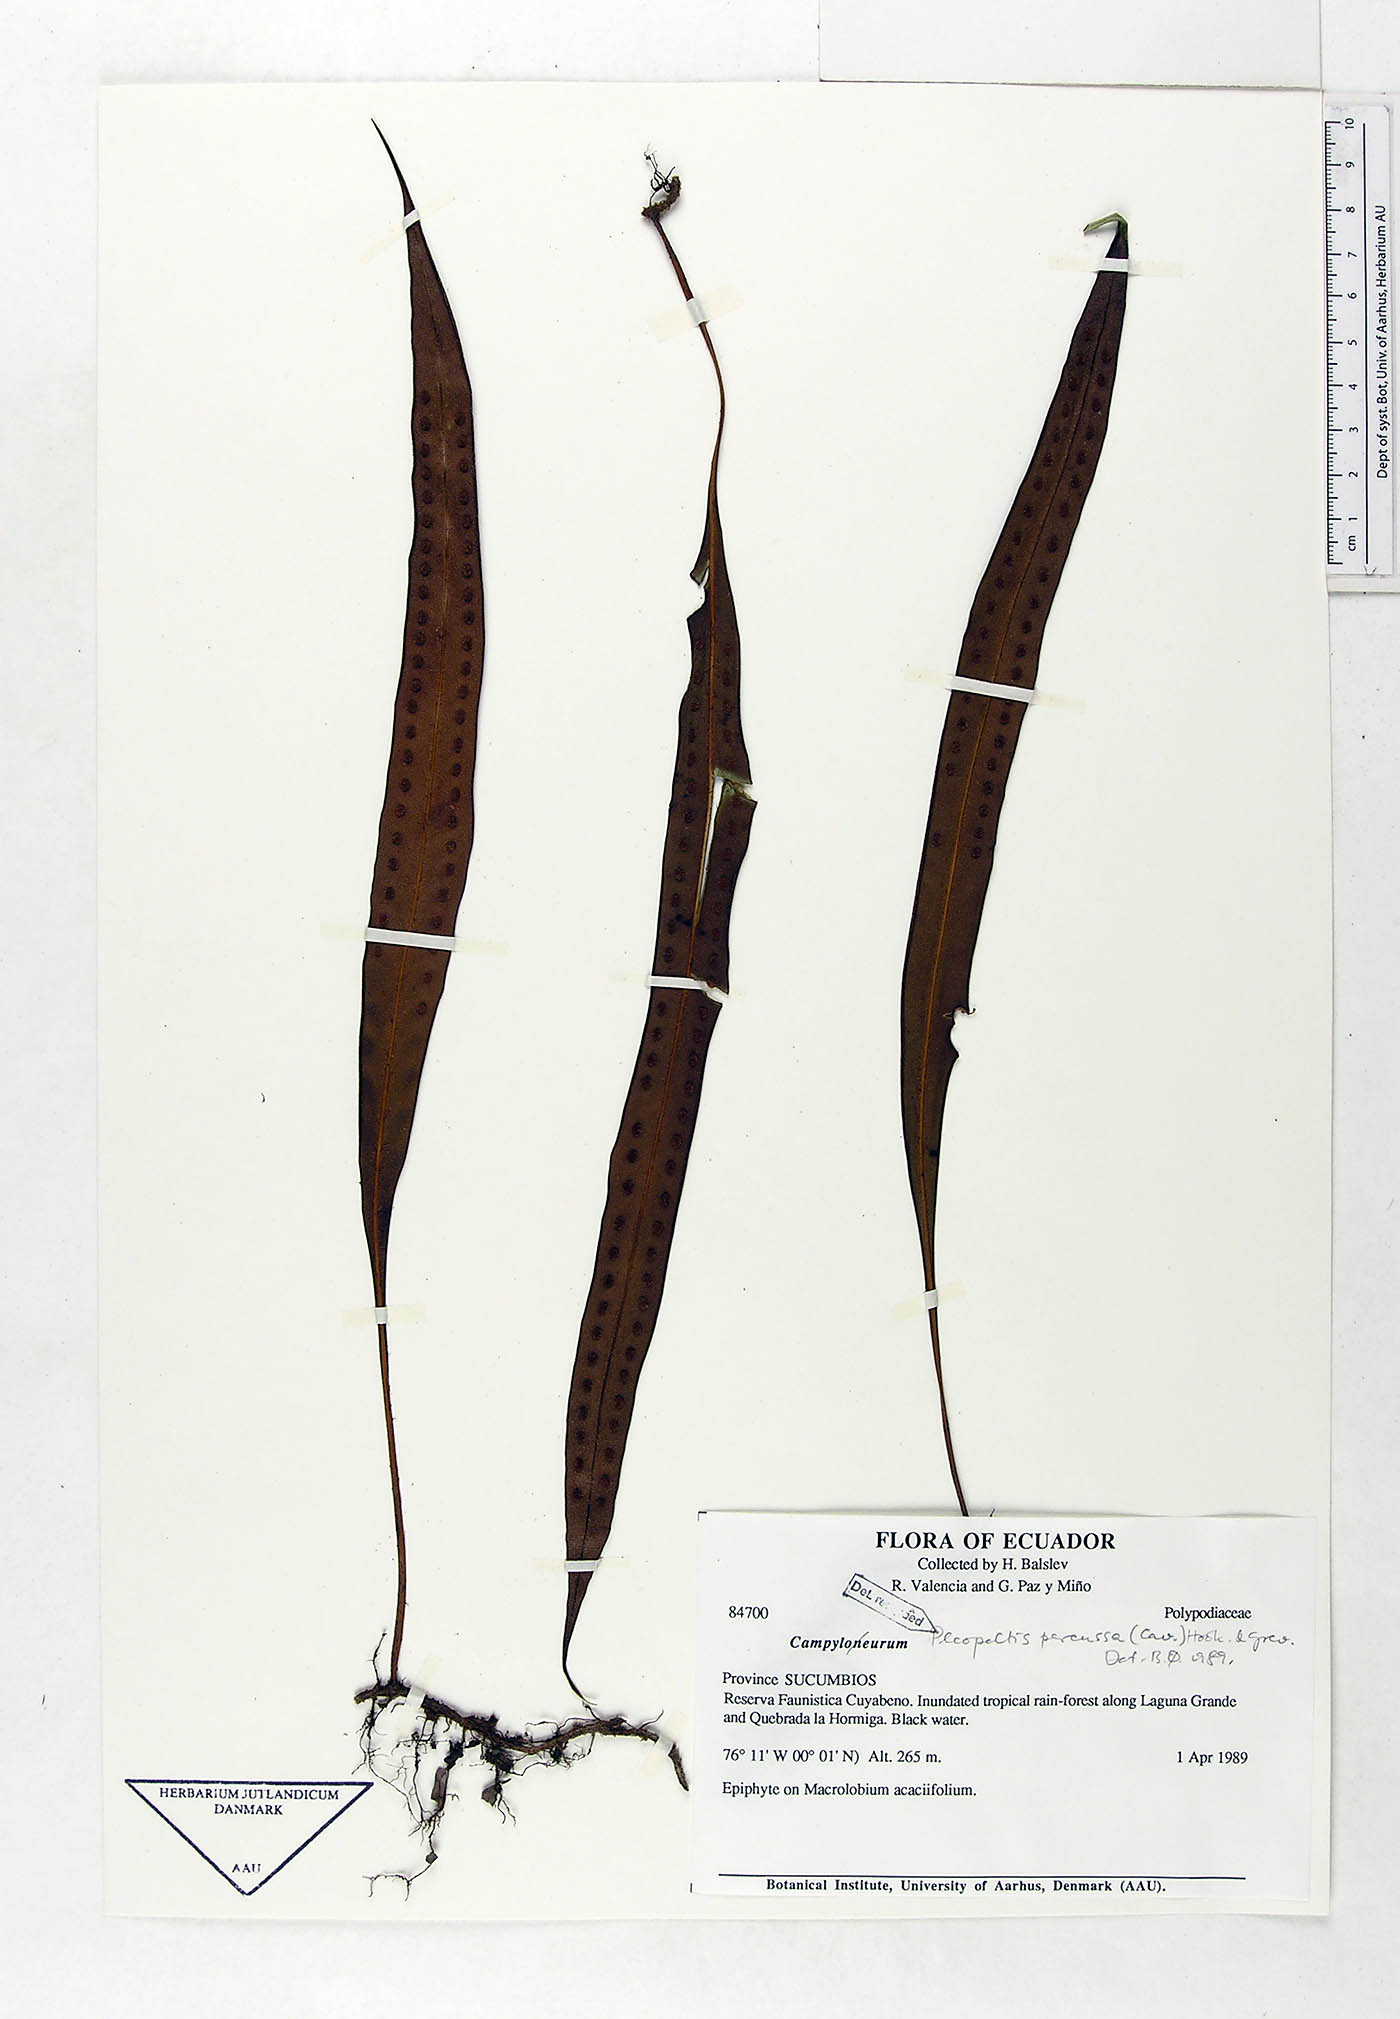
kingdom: Plantae
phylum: Tracheophyta
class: Polypodiopsida
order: Polypodiales
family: Polypodiaceae
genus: Microgramma
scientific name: Microgramma percussa
